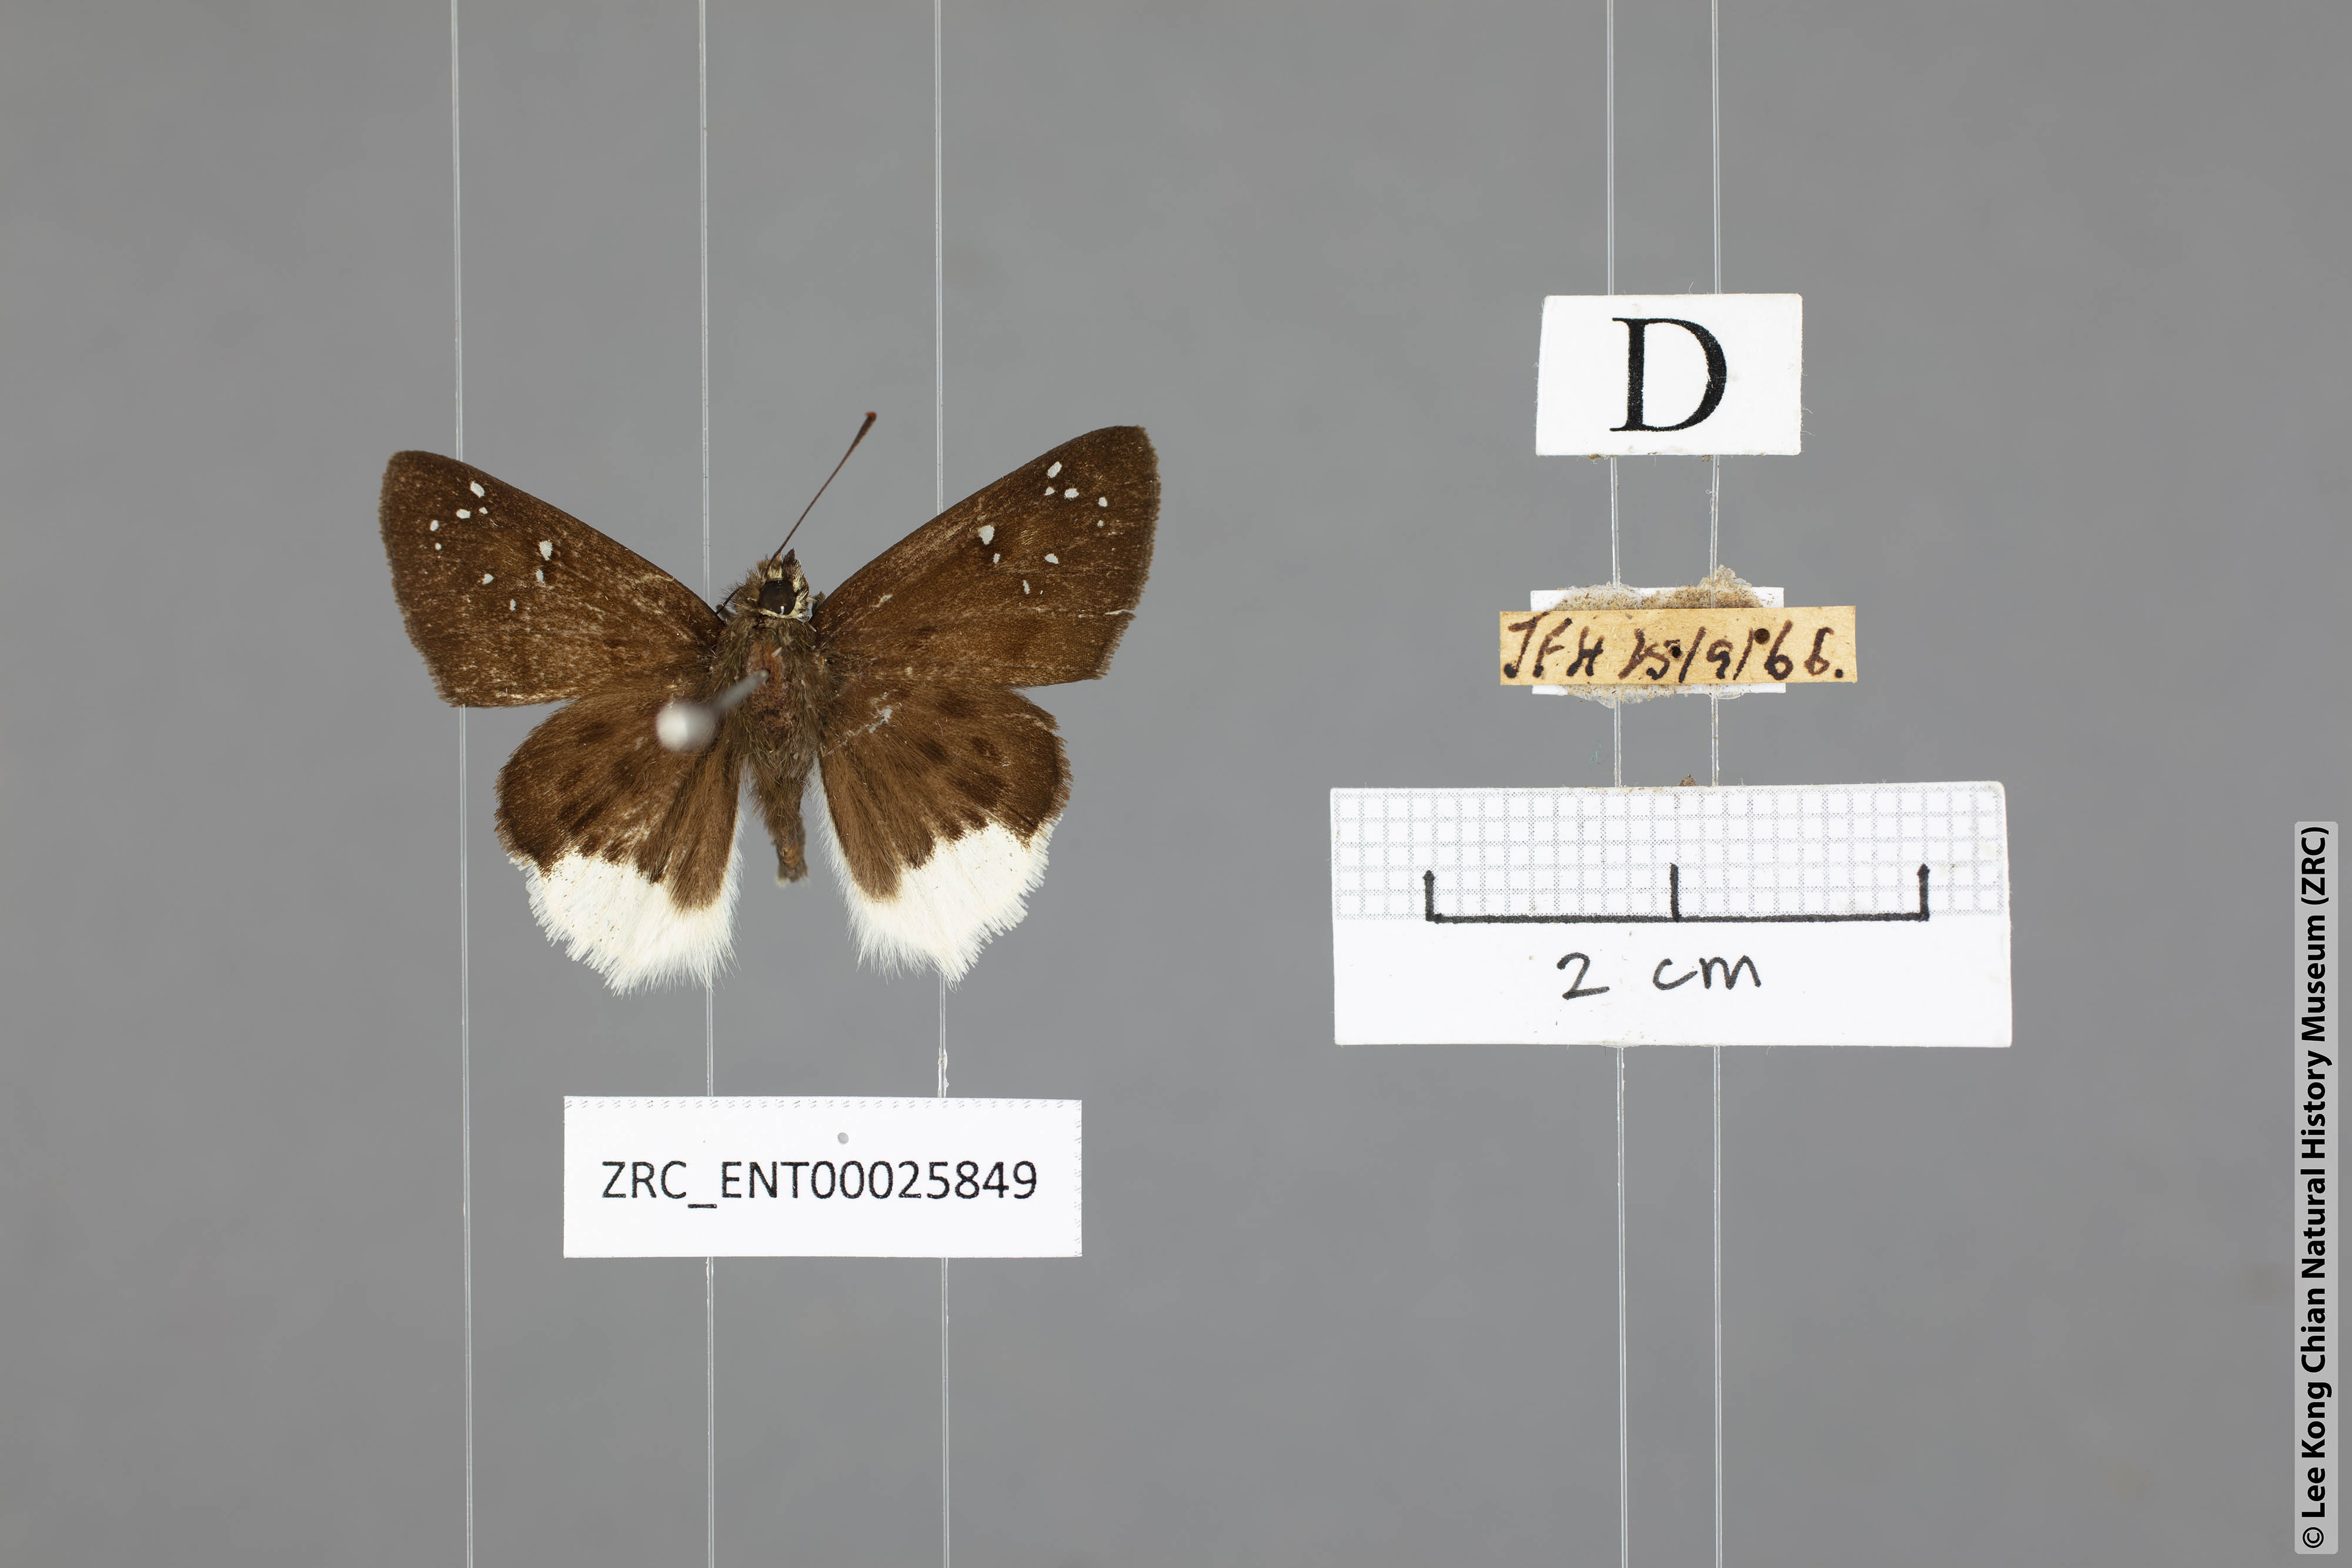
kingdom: Animalia
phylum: Arthropoda
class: Insecta
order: Lepidoptera
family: Hesperiidae
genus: Darpa
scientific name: Darpa pterica
